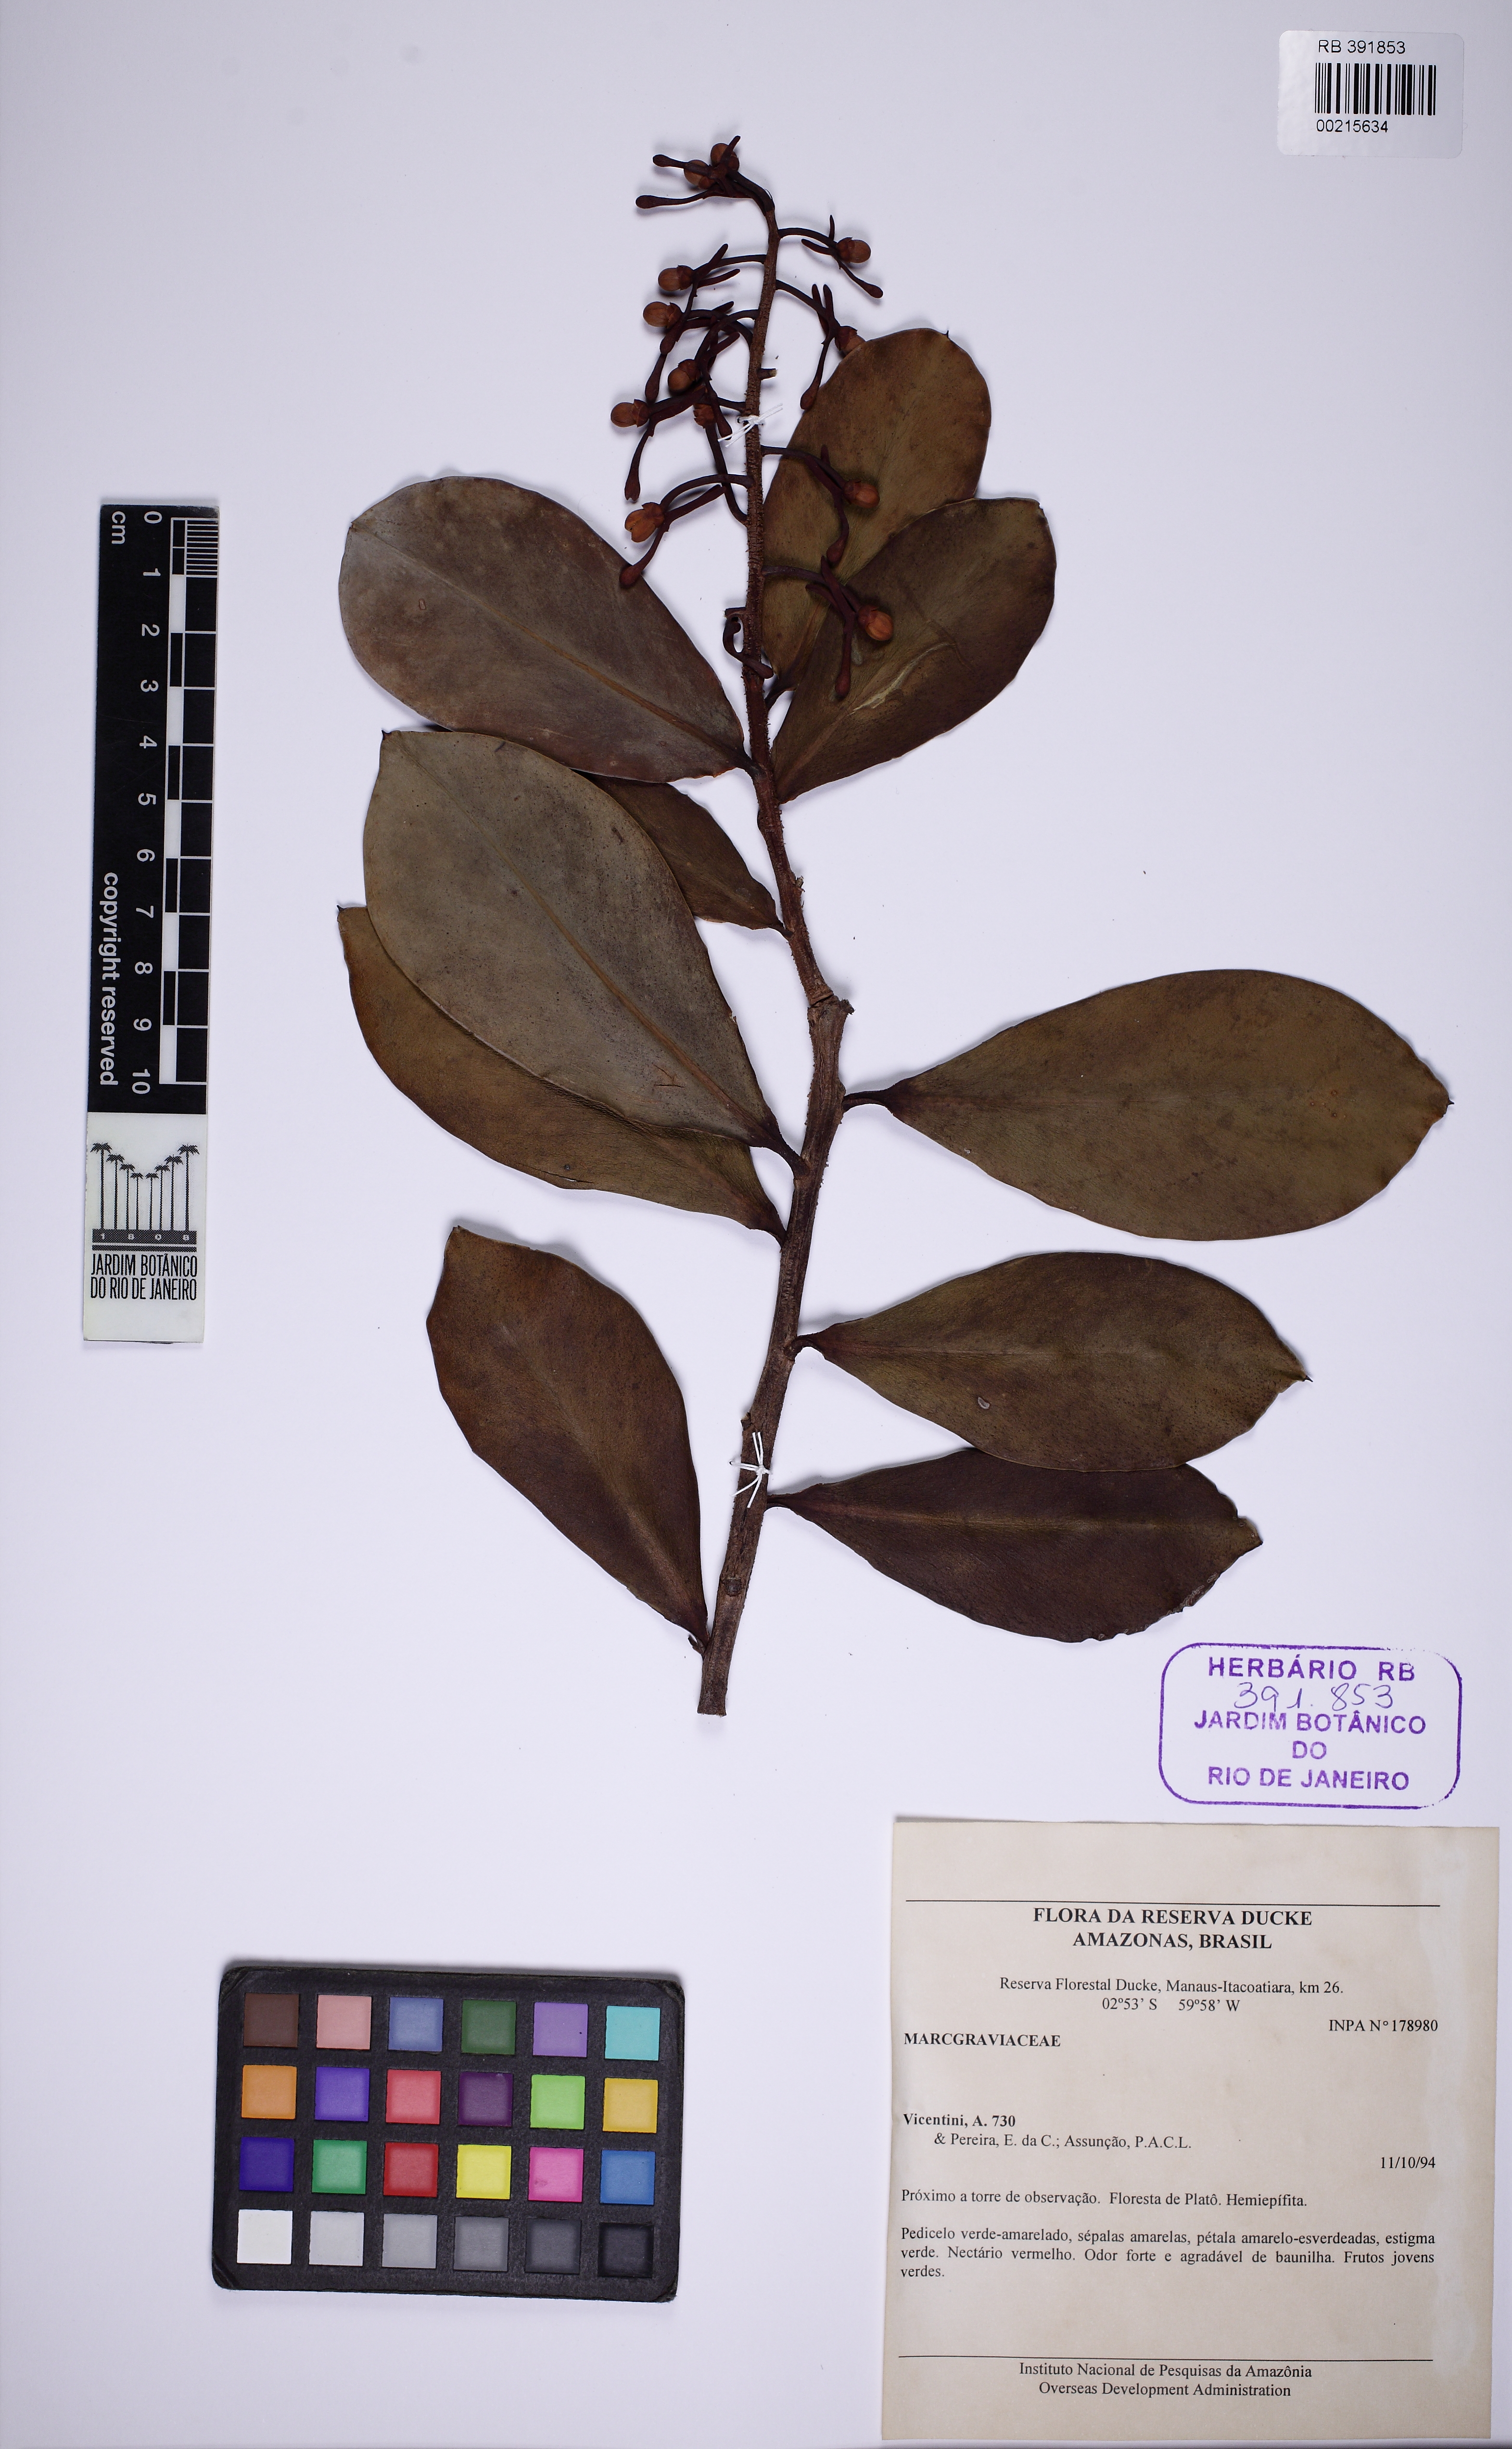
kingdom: Plantae
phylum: Tracheophyta
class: Magnoliopsida
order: Malpighiales
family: Malpighiaceae
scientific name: Malpighiaceae
